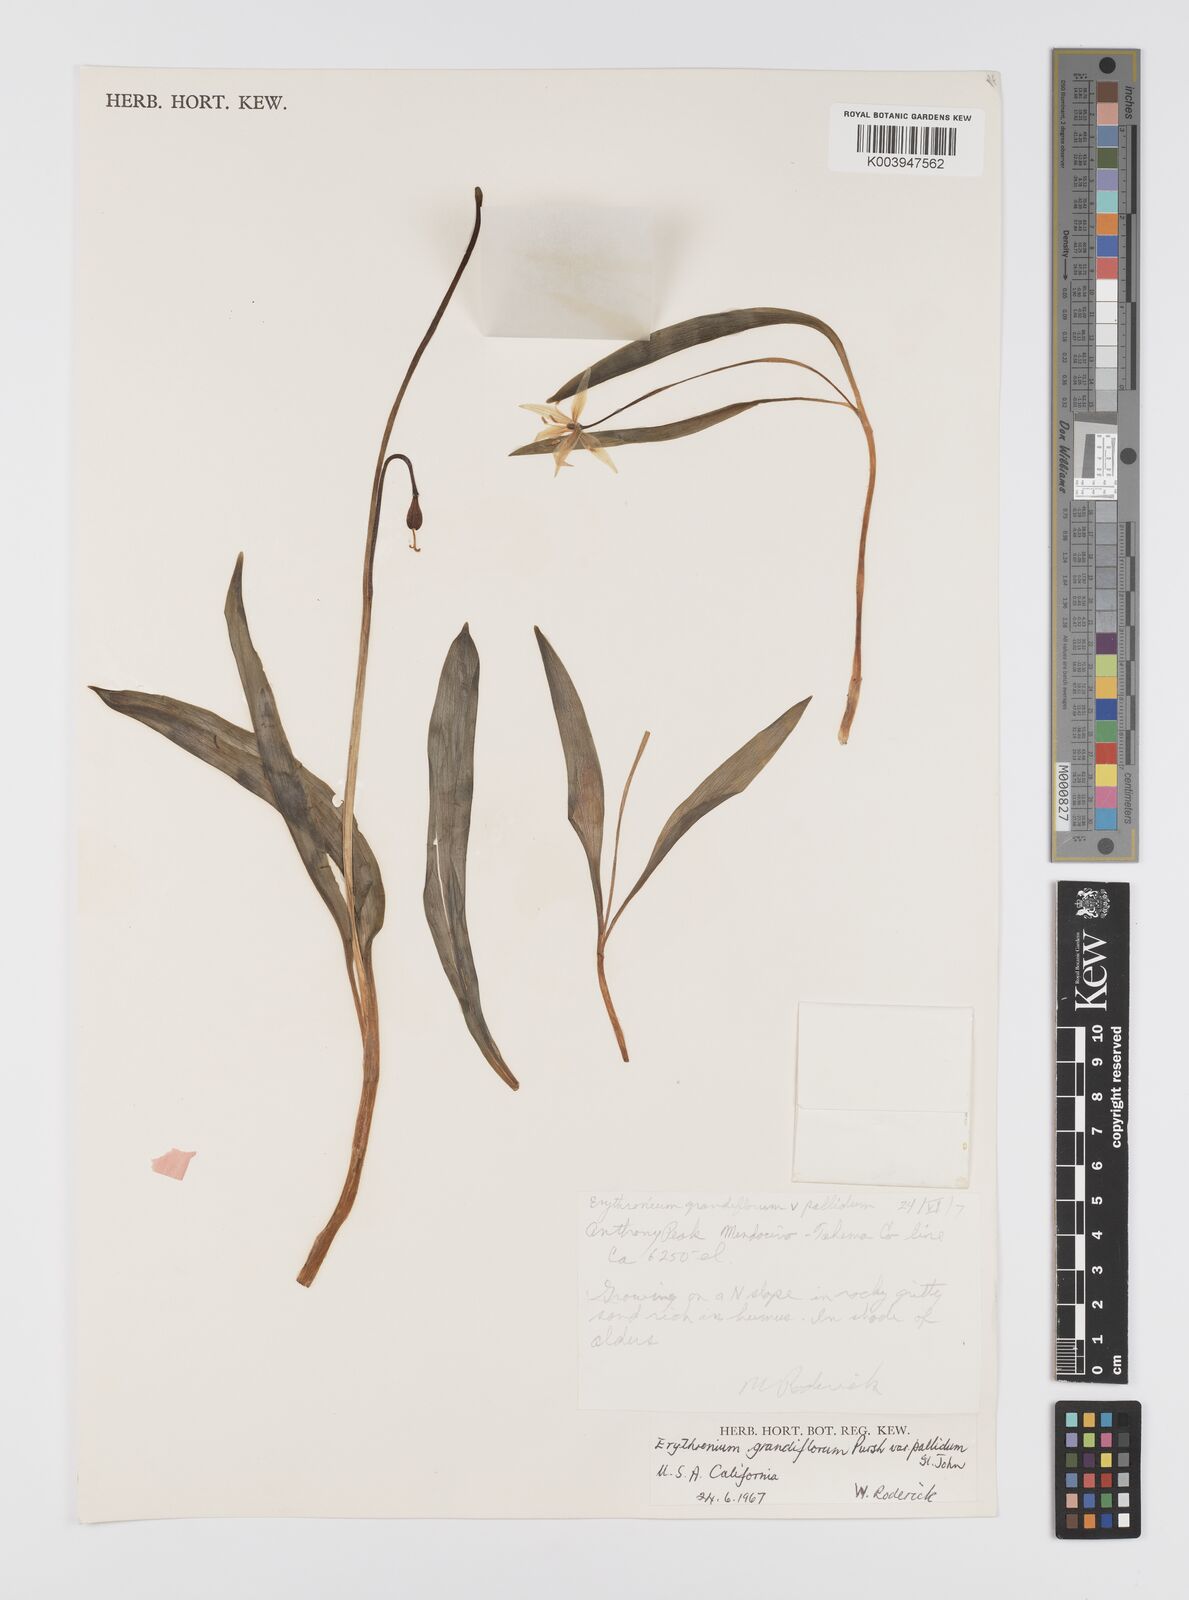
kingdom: Plantae
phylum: Tracheophyta
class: Liliopsida
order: Liliales
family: Liliaceae
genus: Erythronium
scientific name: Erythronium grandiflorum
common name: Avalanche-lily
